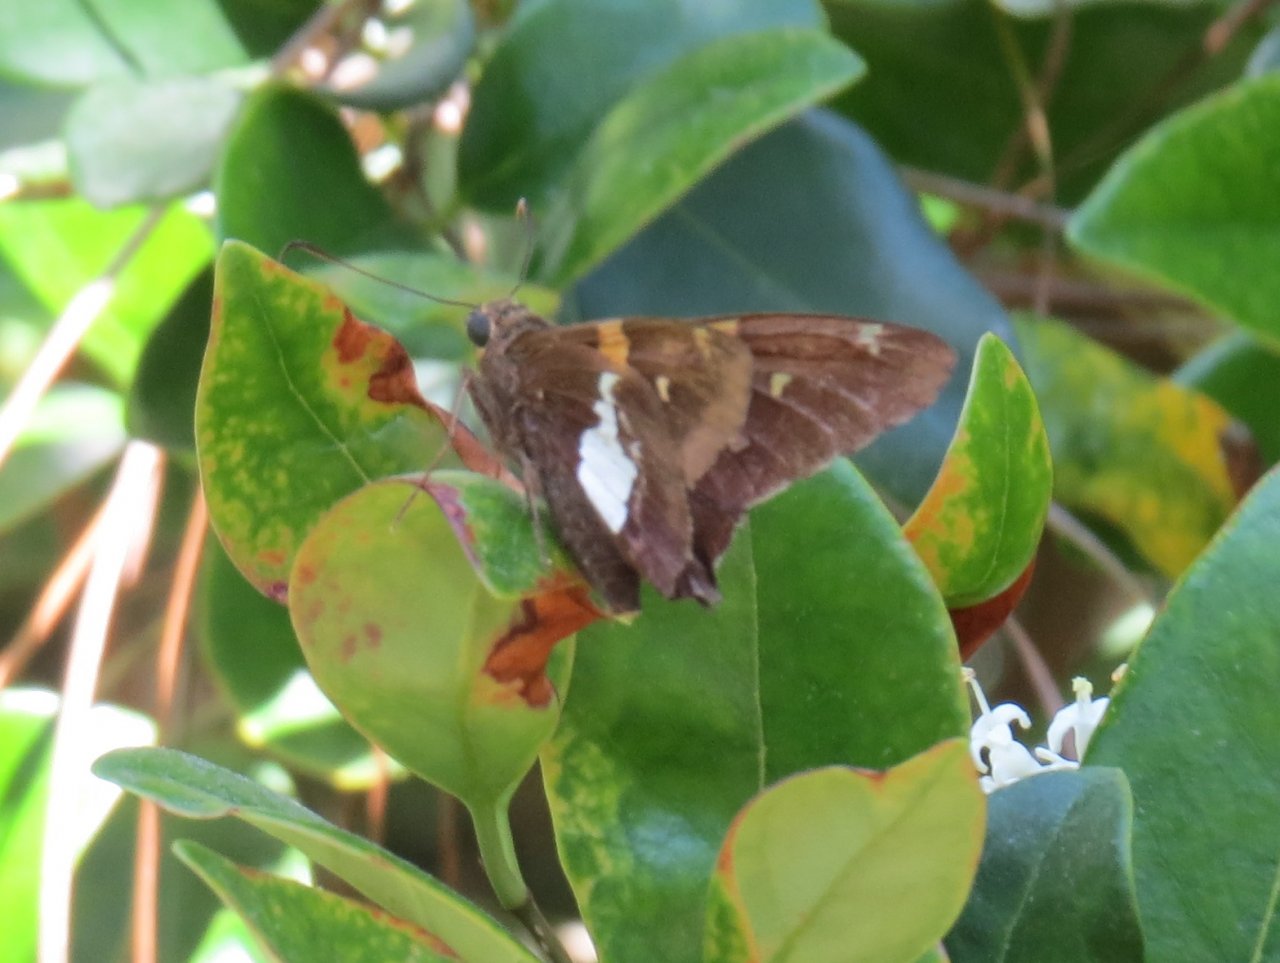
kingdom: Animalia
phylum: Arthropoda
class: Insecta
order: Lepidoptera
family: Hesperiidae
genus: Epargyreus
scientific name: Epargyreus clarus
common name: Silver-spotted Skipper
